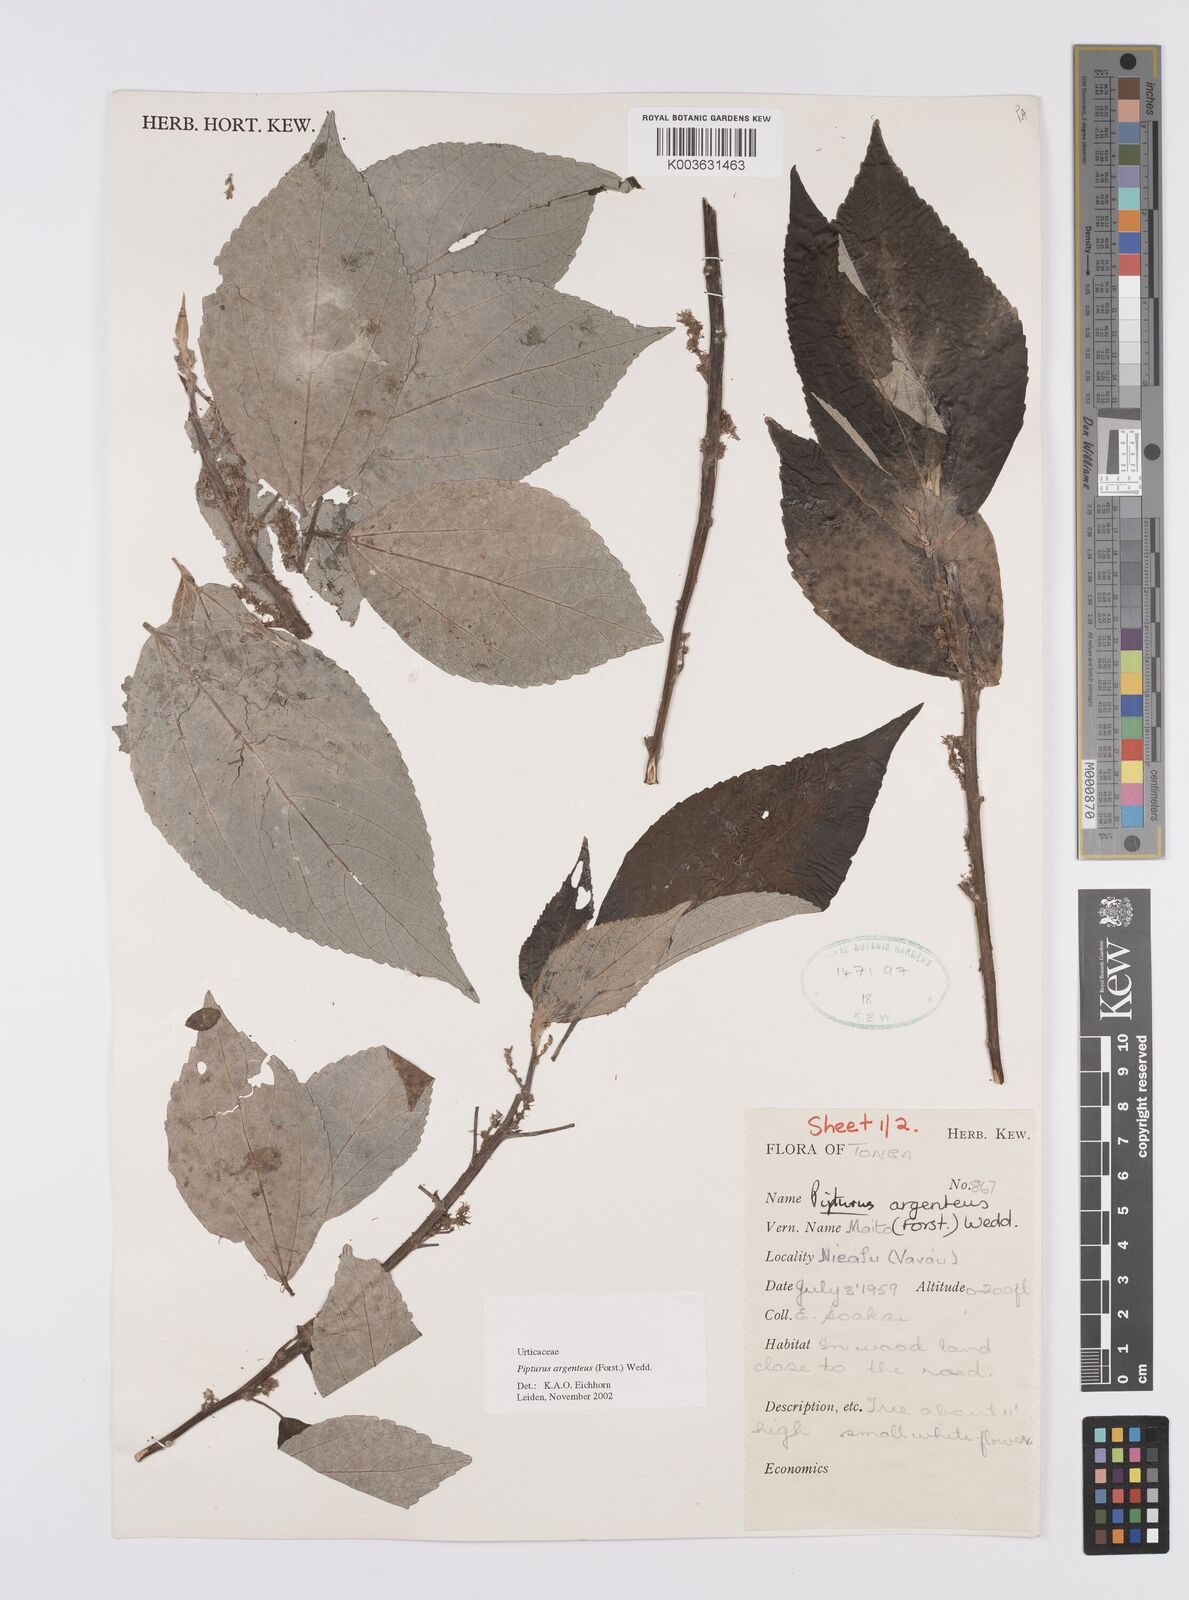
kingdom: Plantae
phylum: Tracheophyta
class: Magnoliopsida
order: Rosales
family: Urticaceae
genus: Pipturus
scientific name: Pipturus argenteus
